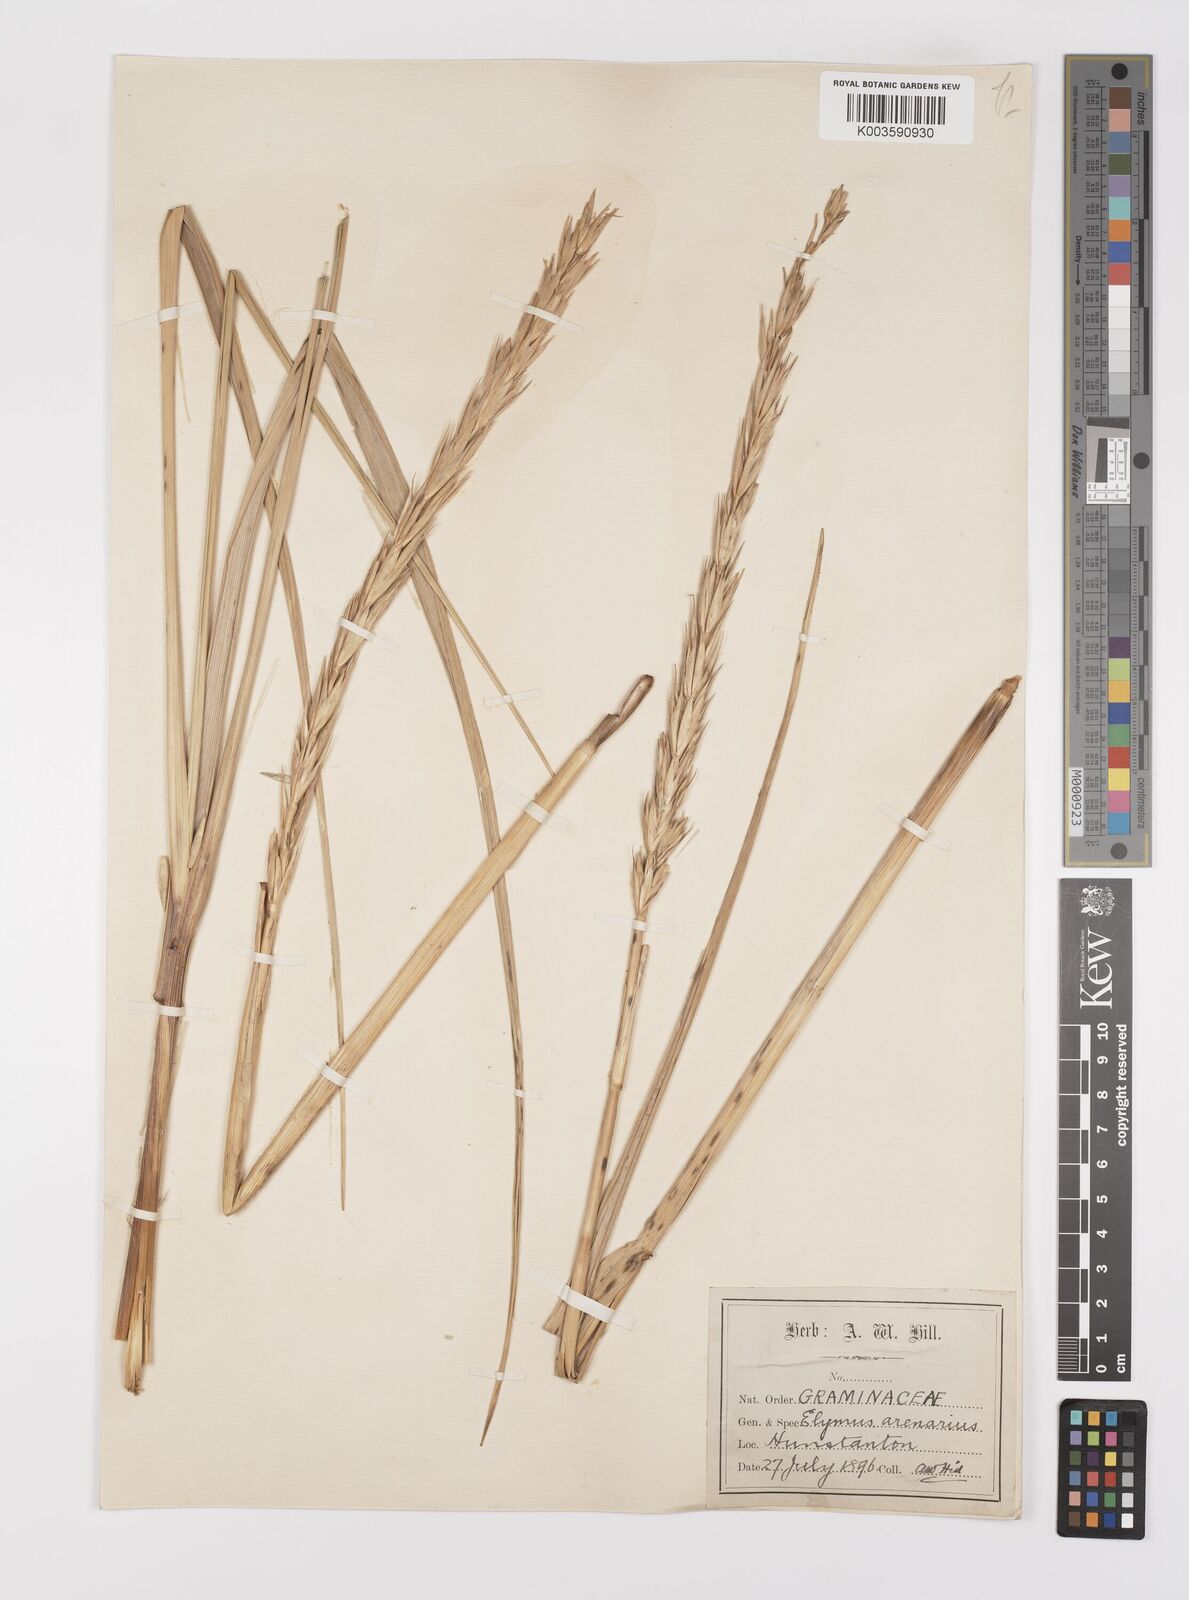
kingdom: Plantae
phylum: Tracheophyta
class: Liliopsida
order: Poales
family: Poaceae
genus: Leymus
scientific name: Leymus arenarius
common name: Lyme-grass
